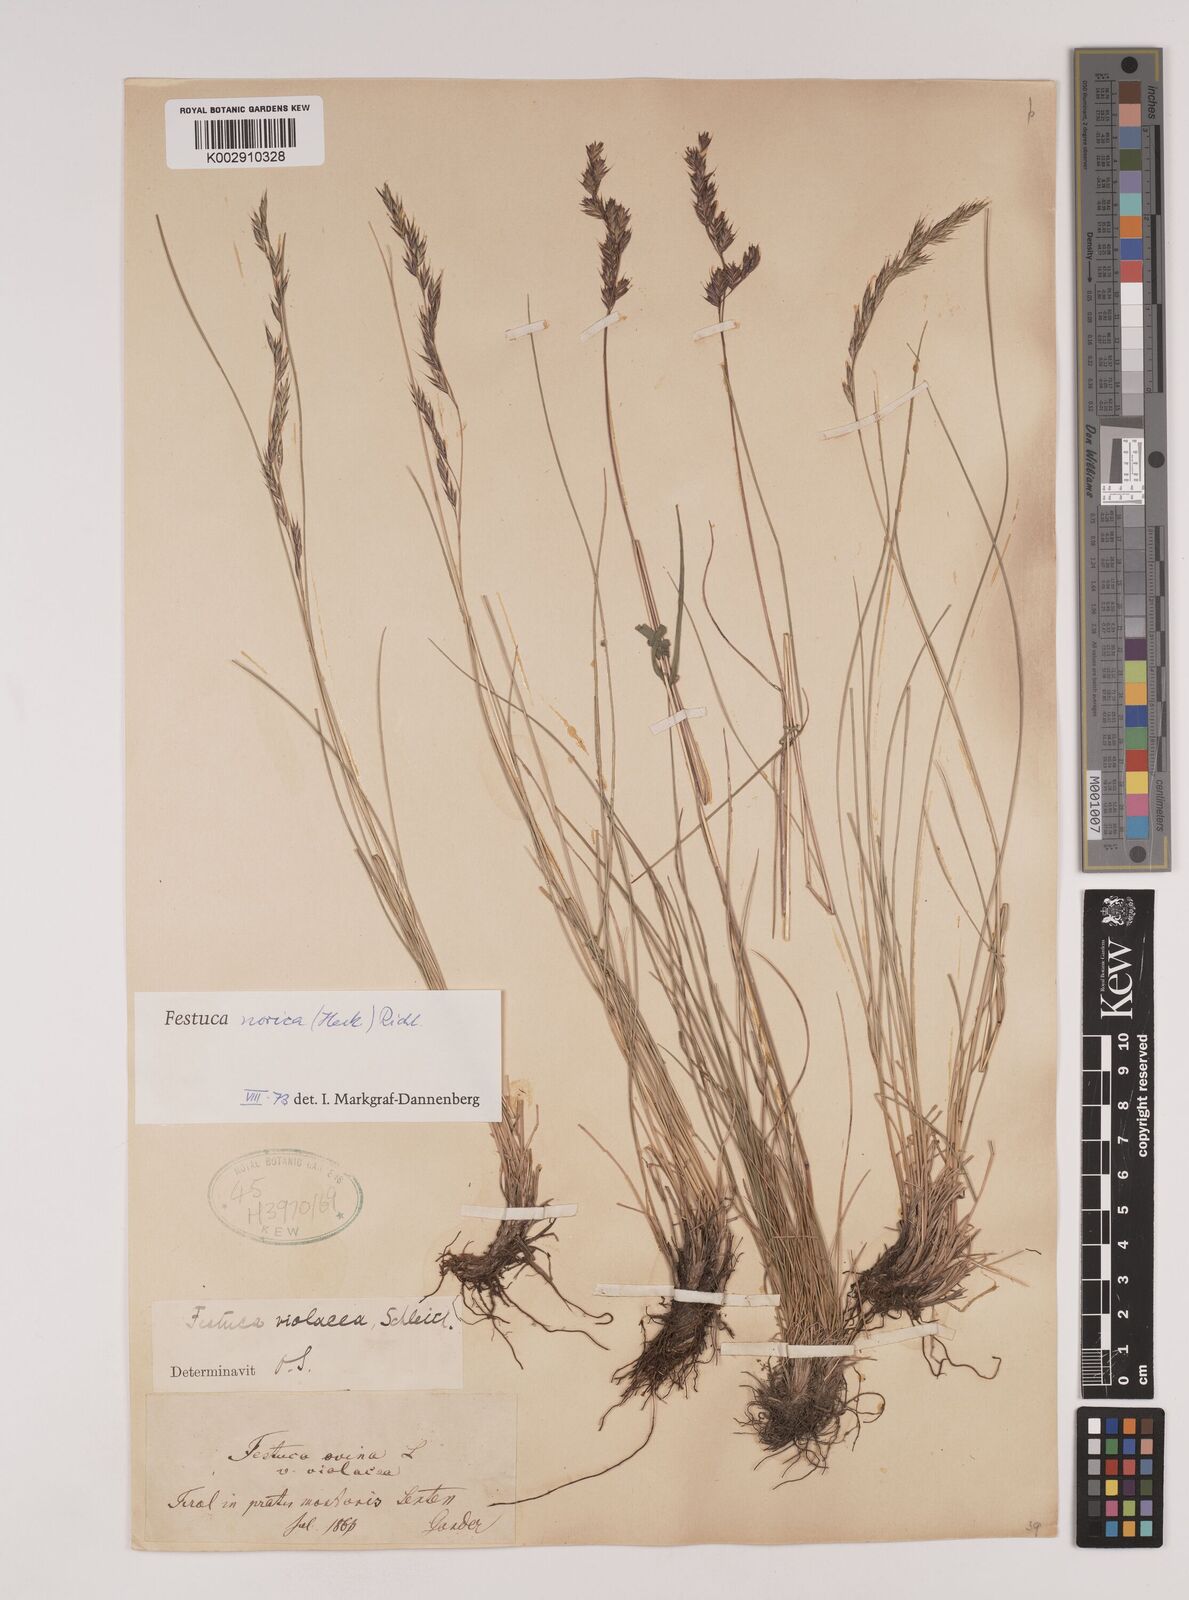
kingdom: Plantae
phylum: Tracheophyta
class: Liliopsida
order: Poales
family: Poaceae
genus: Festuca
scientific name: Festuca norica
